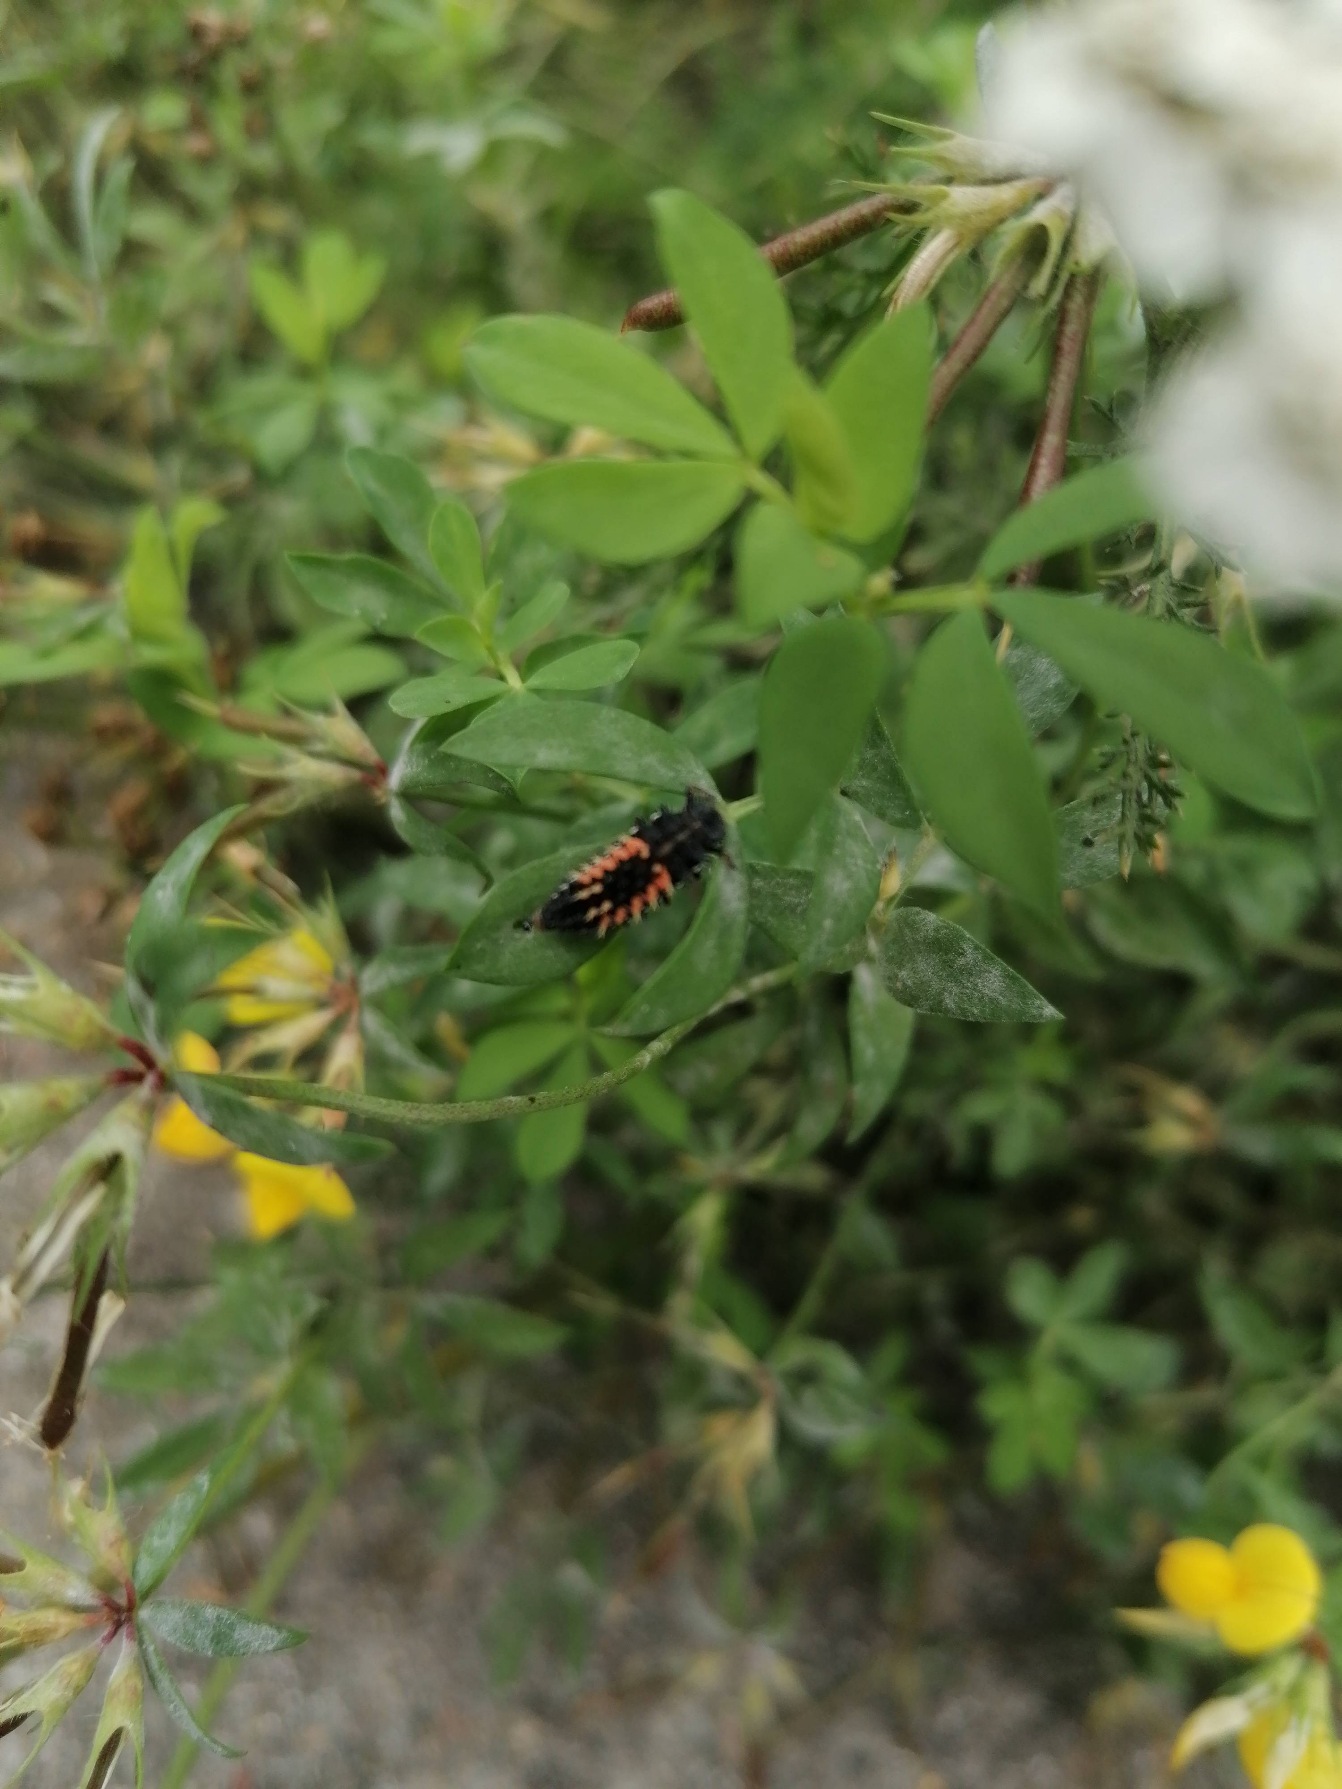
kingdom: Animalia
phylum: Arthropoda
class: Insecta
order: Coleoptera
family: Coccinellidae
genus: Harmonia
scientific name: Harmonia axyridis
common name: Harlekinmariehøne
